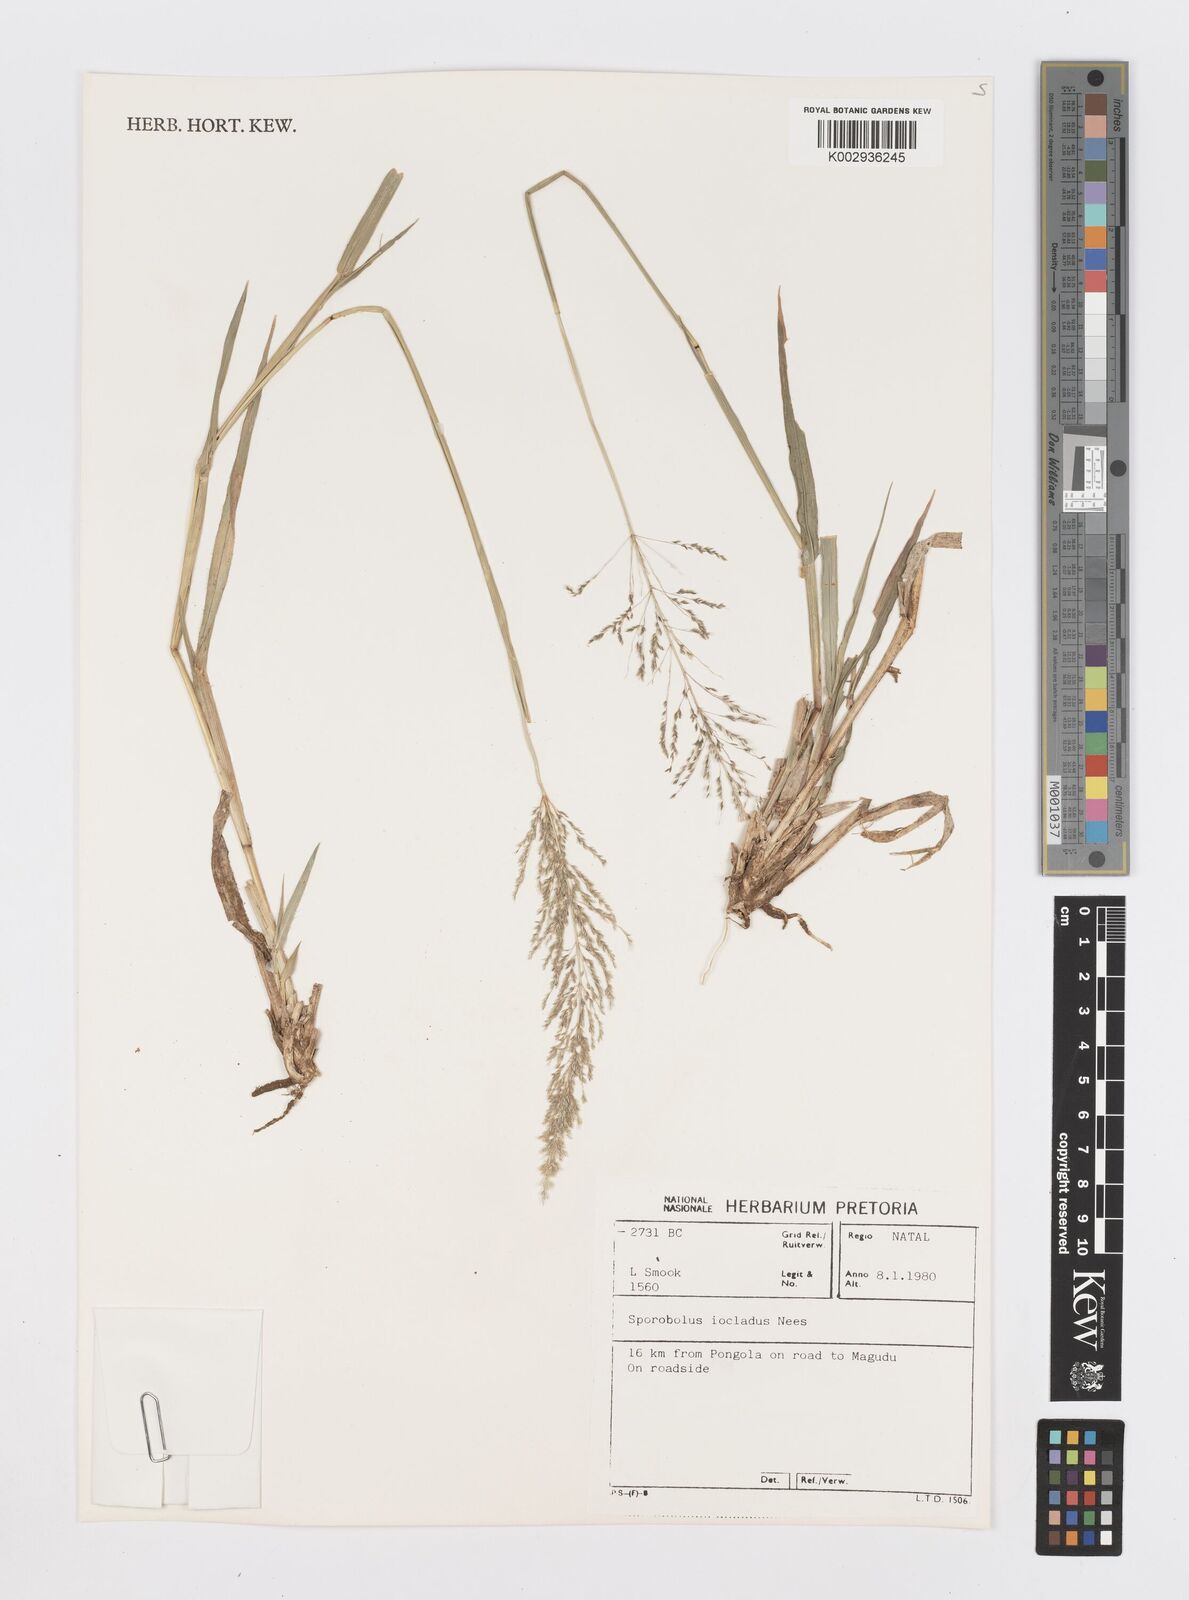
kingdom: Plantae
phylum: Tracheophyta
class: Liliopsida
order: Poales
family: Poaceae
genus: Sporobolus
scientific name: Sporobolus ioclados
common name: Pan dropseed
